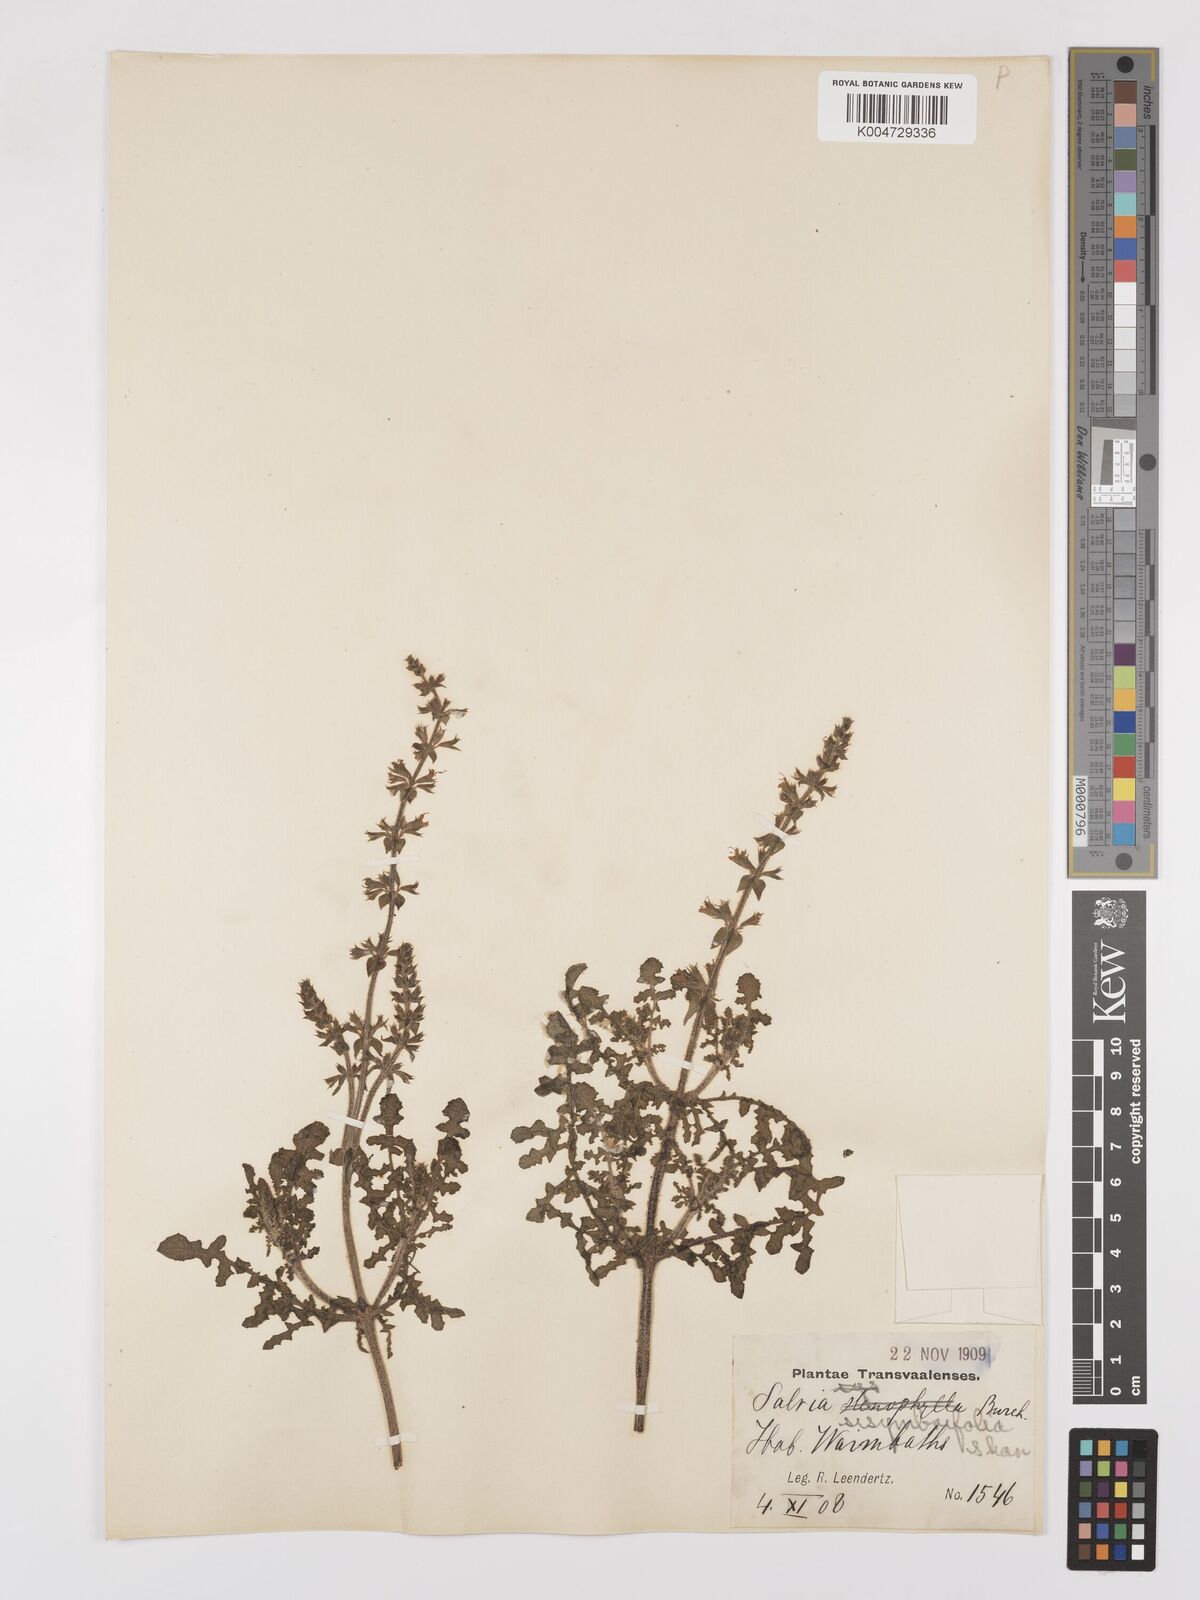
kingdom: Plantae
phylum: Tracheophyta
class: Magnoliopsida
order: Lamiales
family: Lamiaceae
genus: Salvia
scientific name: Salvia runcinata
